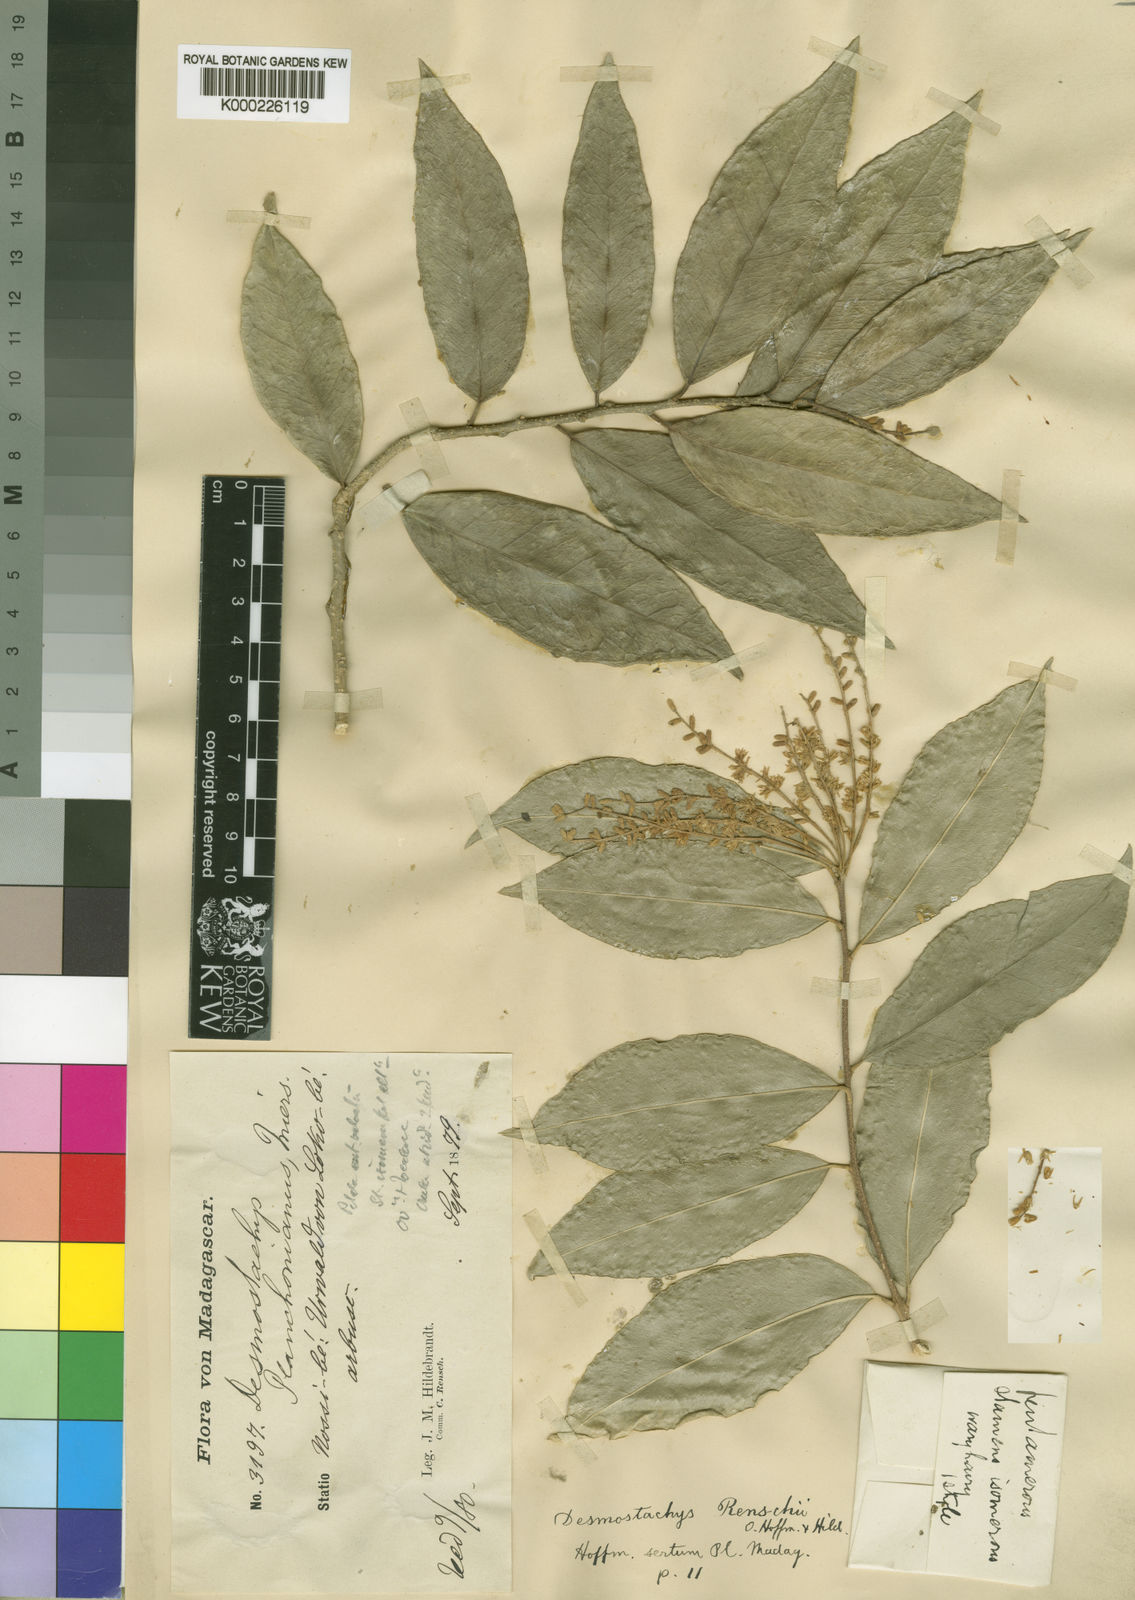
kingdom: Plantae
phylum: Tracheophyta
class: Magnoliopsida
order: Icacinales
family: Icacinaceae
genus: Desmostachys
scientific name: Desmostachys planchonianus
